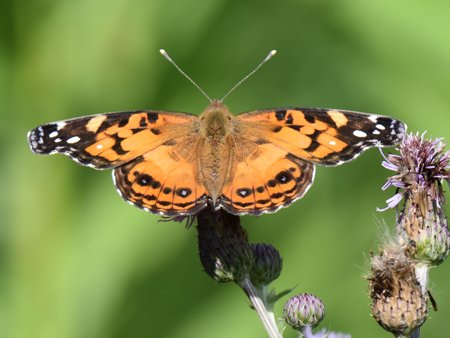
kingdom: Animalia
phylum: Arthropoda
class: Insecta
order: Lepidoptera
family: Nymphalidae
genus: Vanessa
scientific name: Vanessa virginiensis
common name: American Lady
